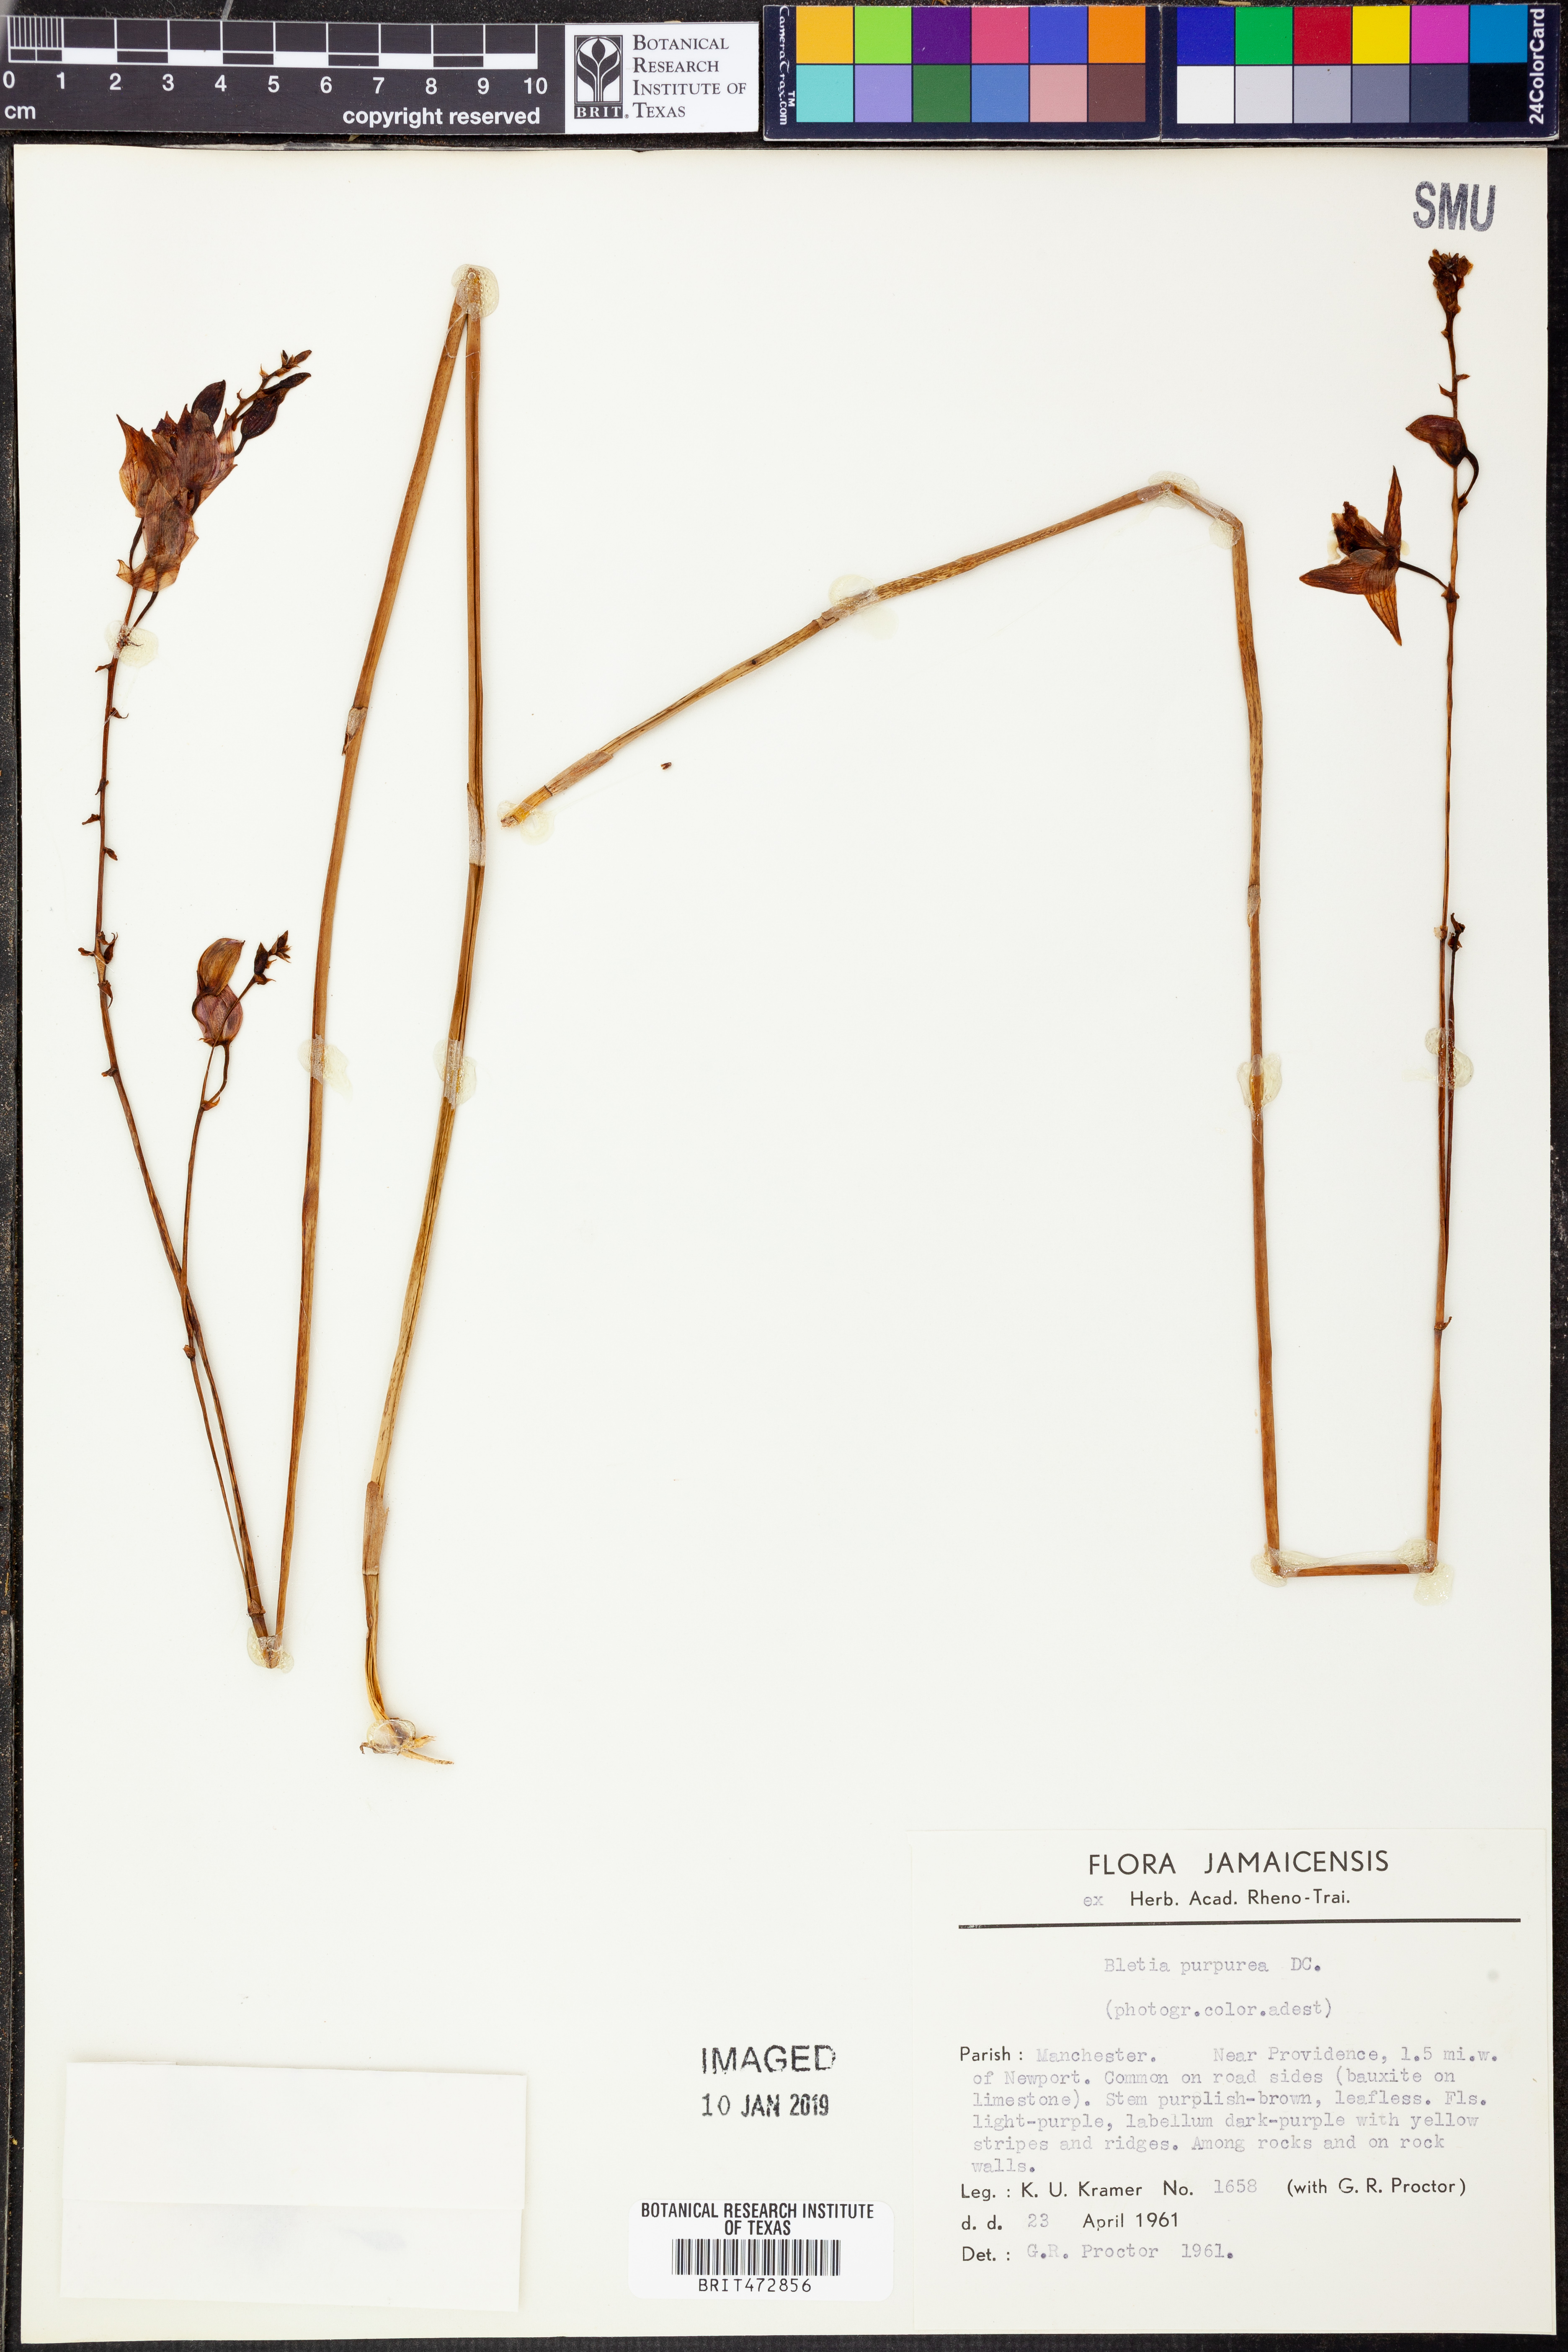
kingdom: Plantae
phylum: Tracheophyta
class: Liliopsida
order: Asparagales
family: Orchidaceae
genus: Bletia
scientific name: Bletia purpurea
